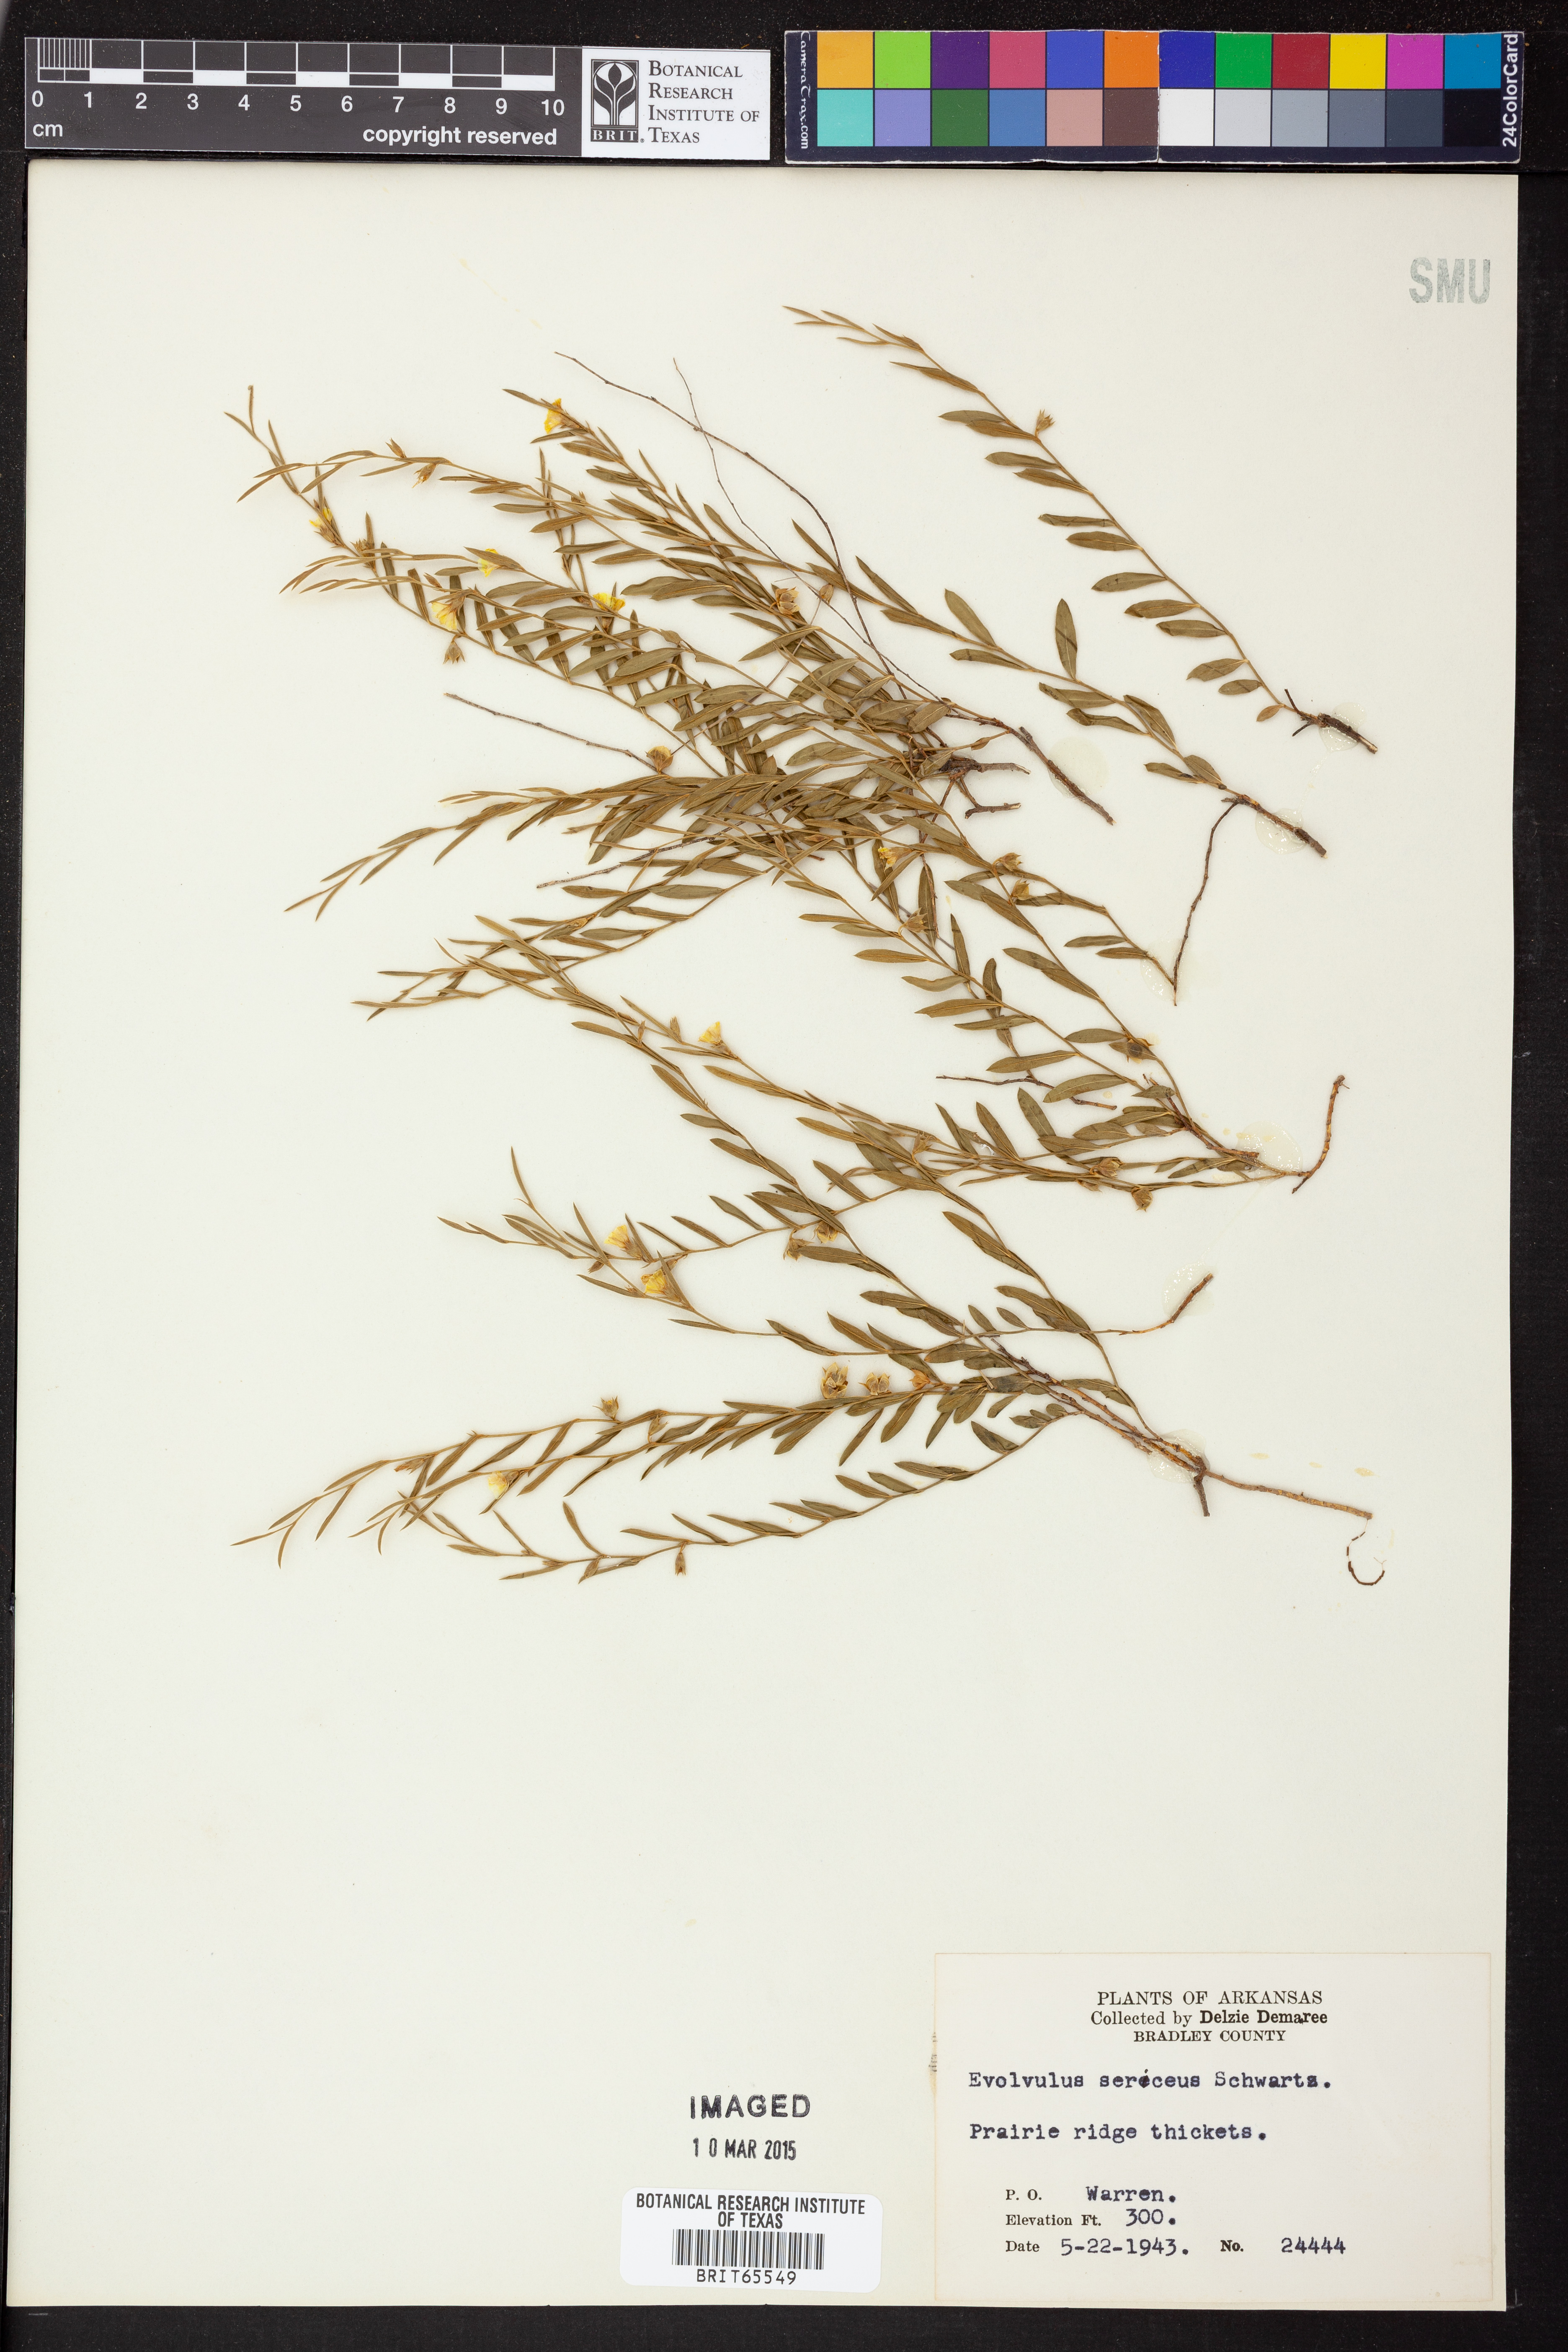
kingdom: Plantae
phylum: Tracheophyta
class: Magnoliopsida
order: Solanales
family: Convolvulaceae
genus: Evolvulus
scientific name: Evolvulus sericeus
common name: Blue dots
